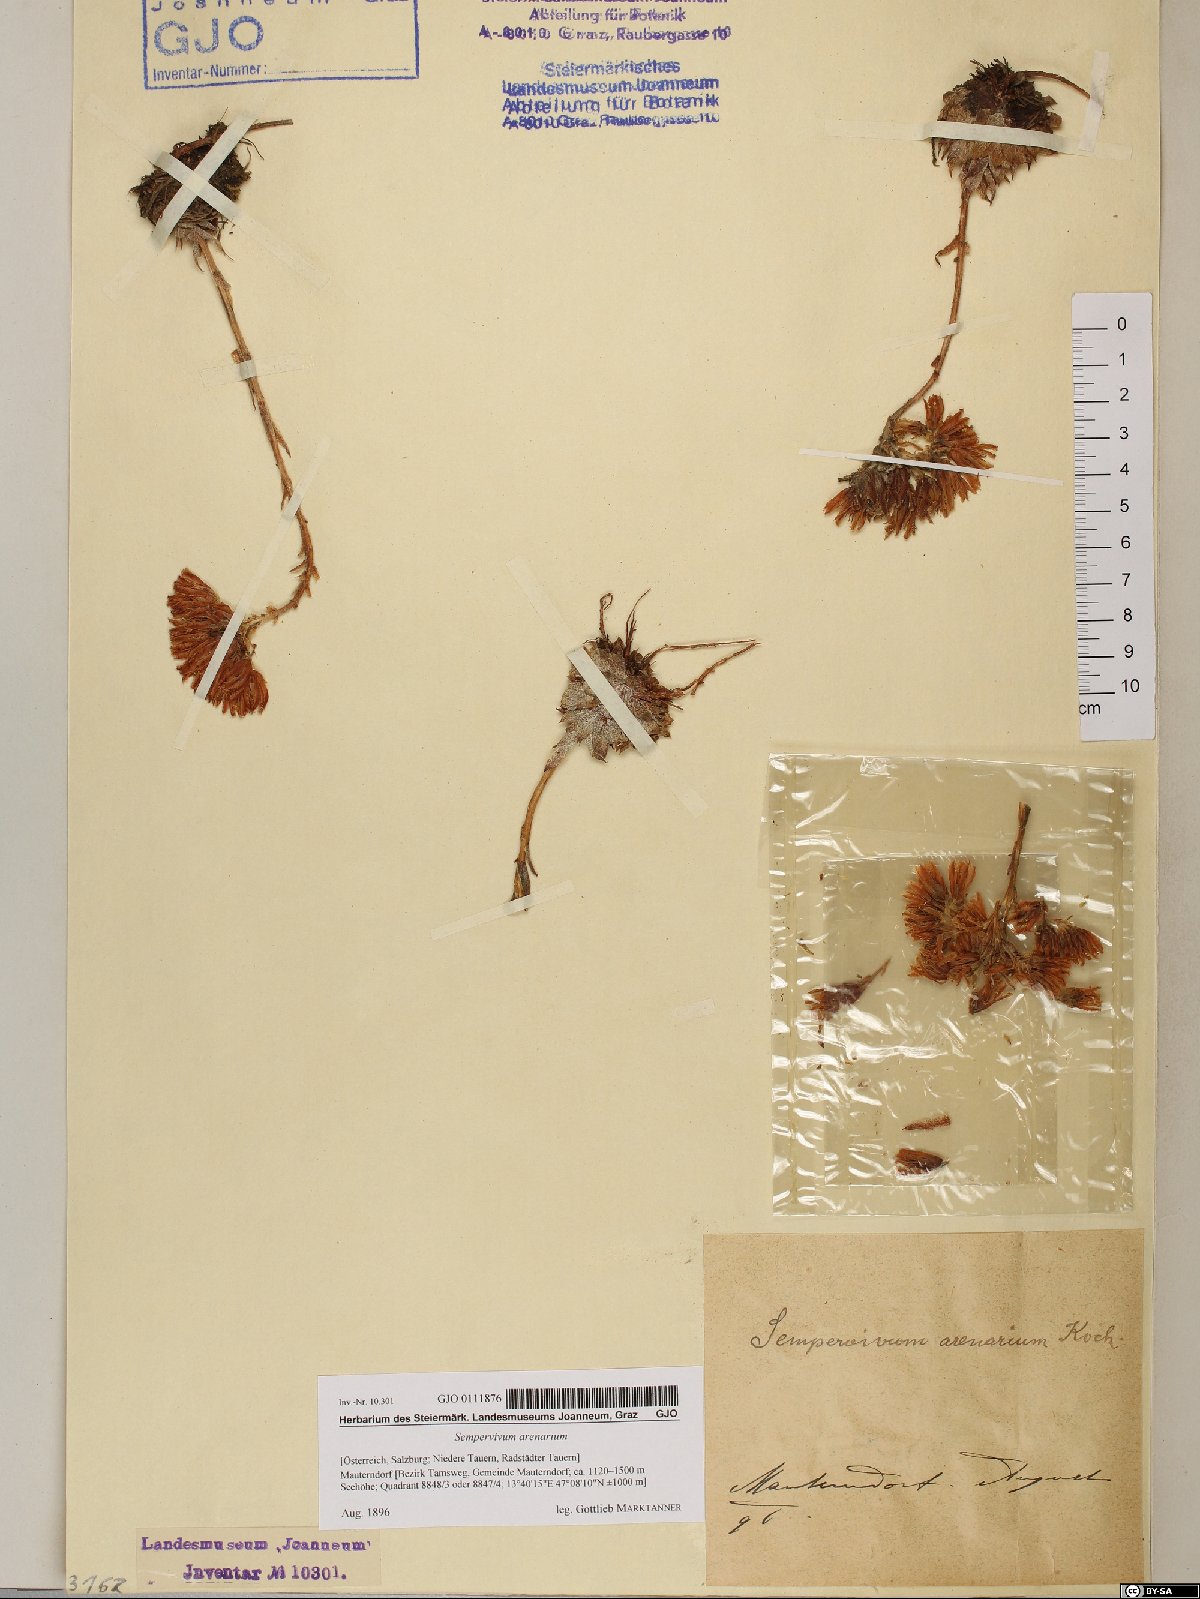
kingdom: Plantae
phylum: Tracheophyta
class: Magnoliopsida
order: Saxifragales
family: Crassulaceae
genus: Sempervivum
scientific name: Sempervivum globiferum
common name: Rolling hen-and-chicks
